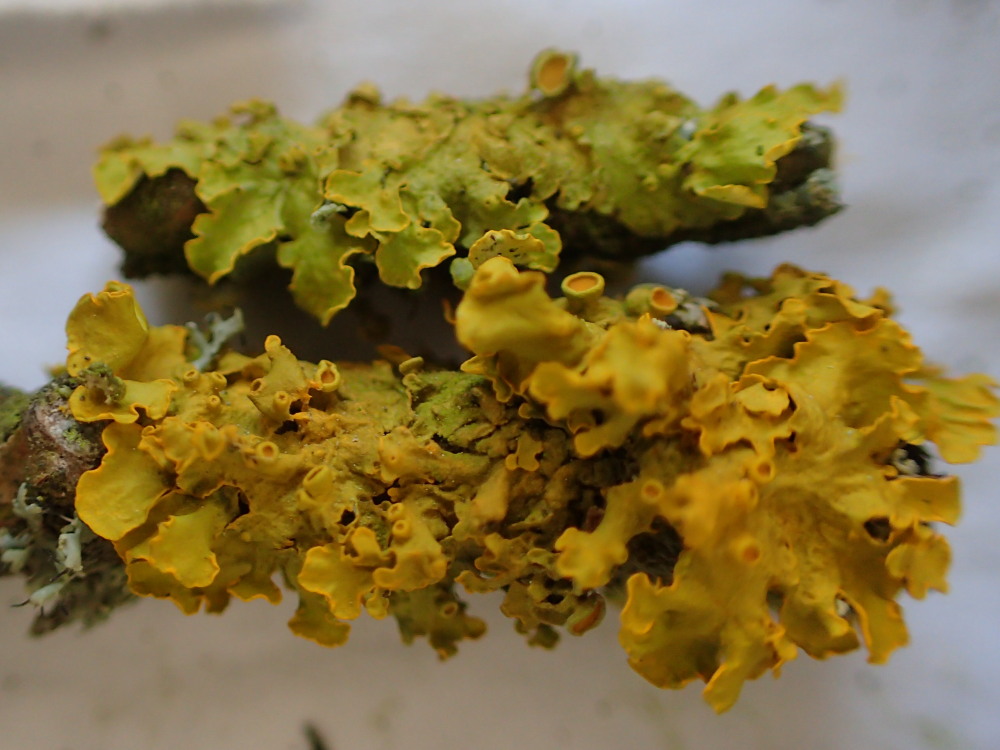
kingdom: Fungi
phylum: Ascomycota
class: Lecanoromycetes
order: Teloschistales
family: Teloschistaceae
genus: Xanthoria
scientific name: Xanthoria parietina
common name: almindelig væggelav
